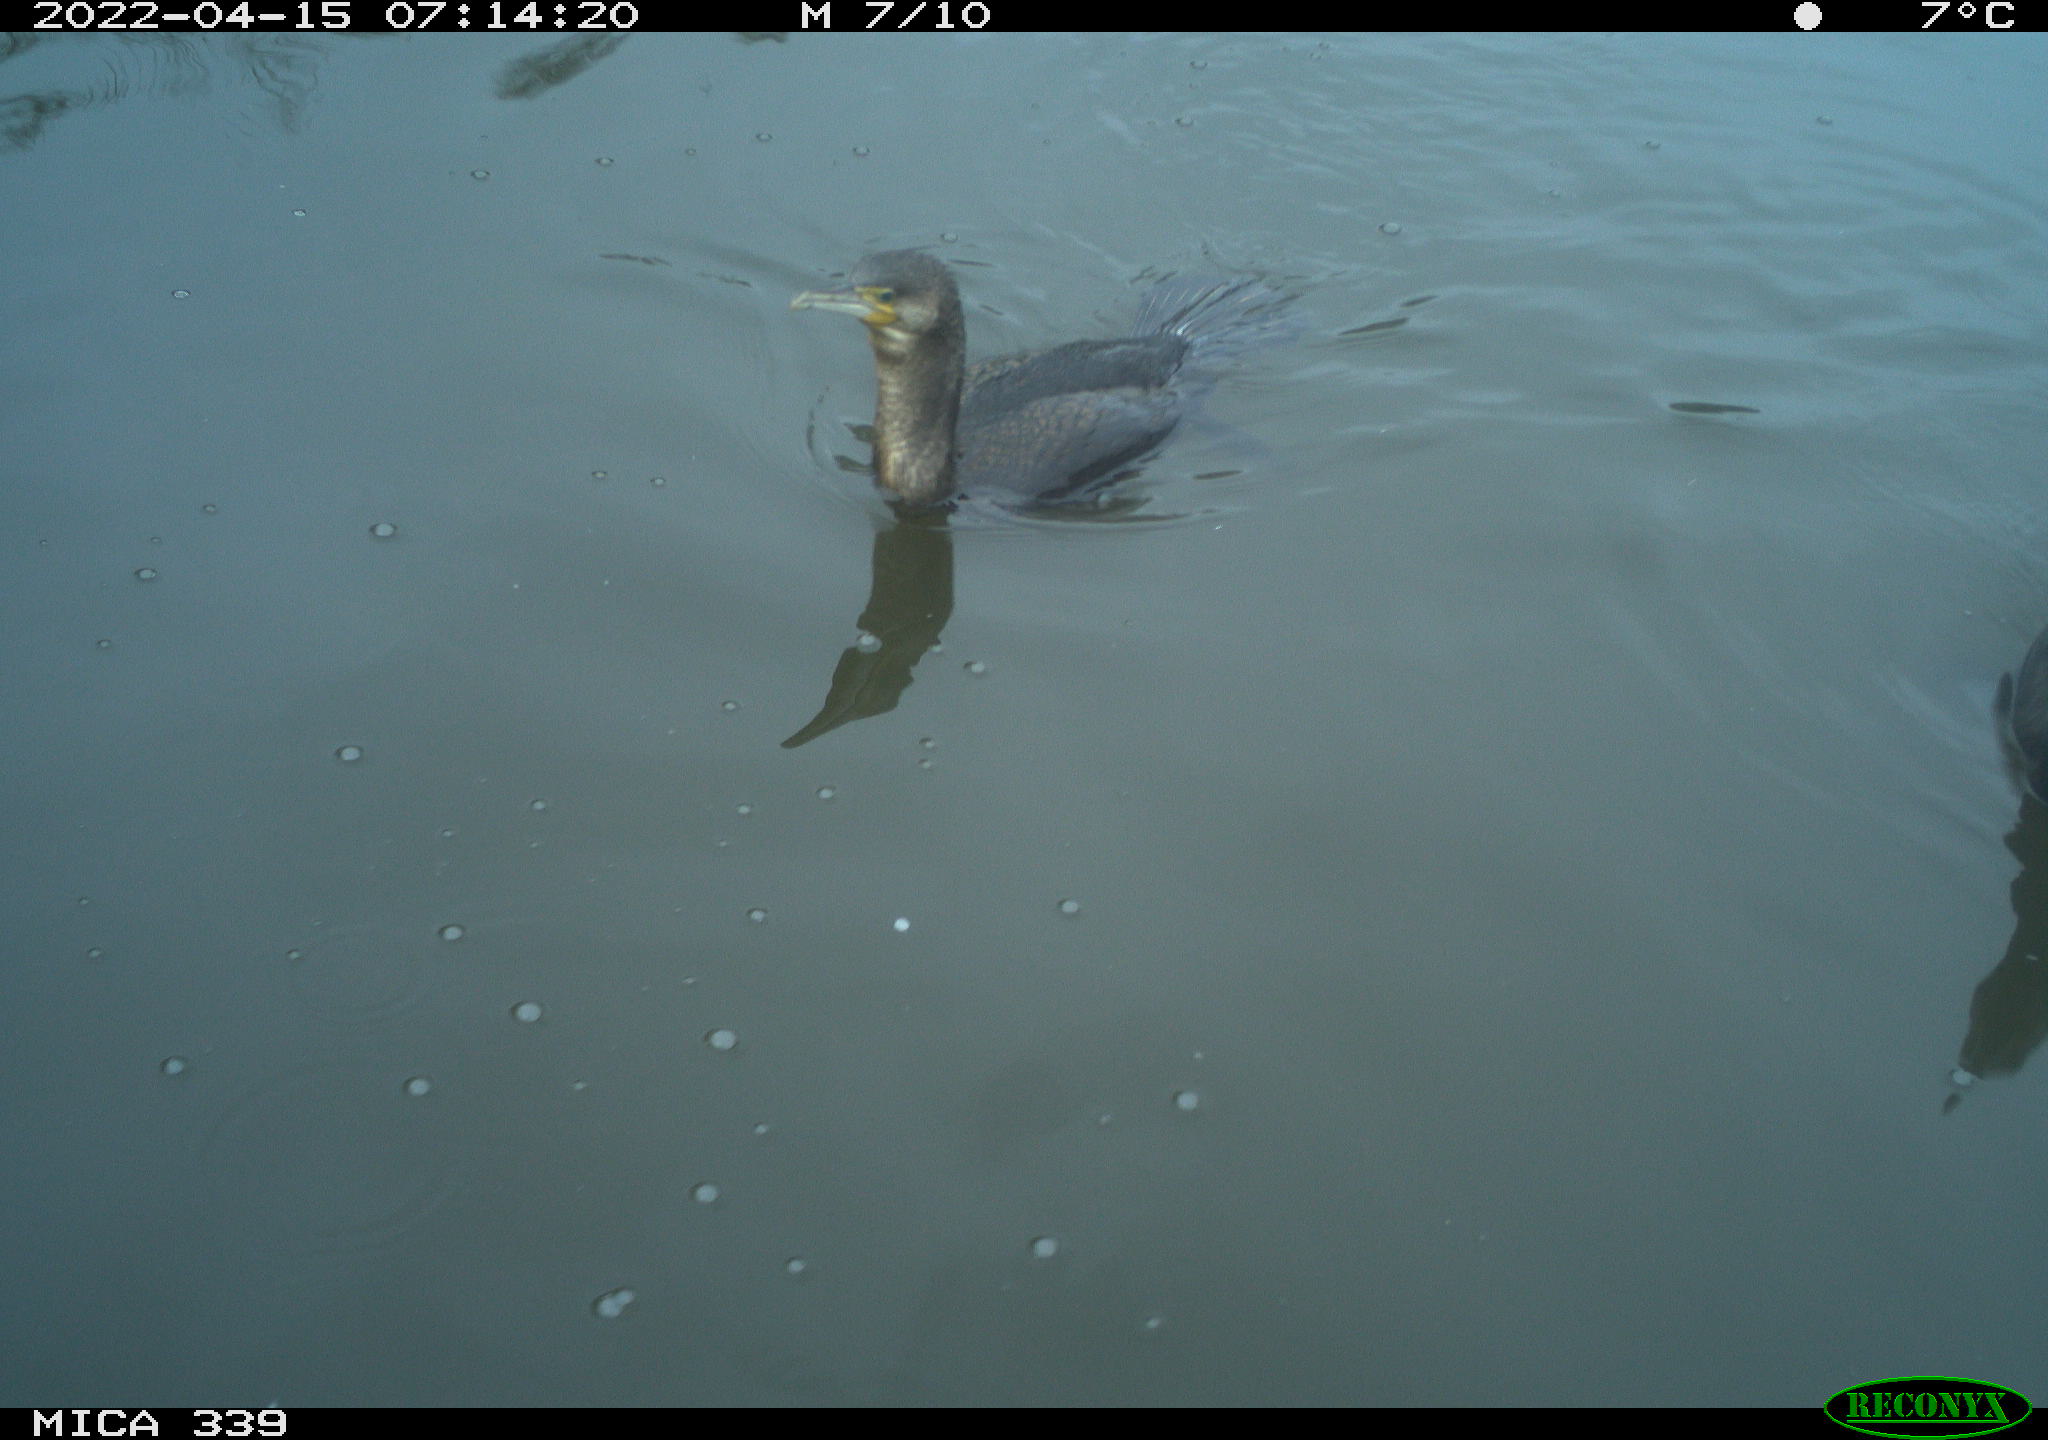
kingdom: Animalia
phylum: Chordata
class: Aves
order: Suliformes
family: Phalacrocoracidae
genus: Phalacrocorax
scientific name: Phalacrocorax carbo
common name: Great cormorant
